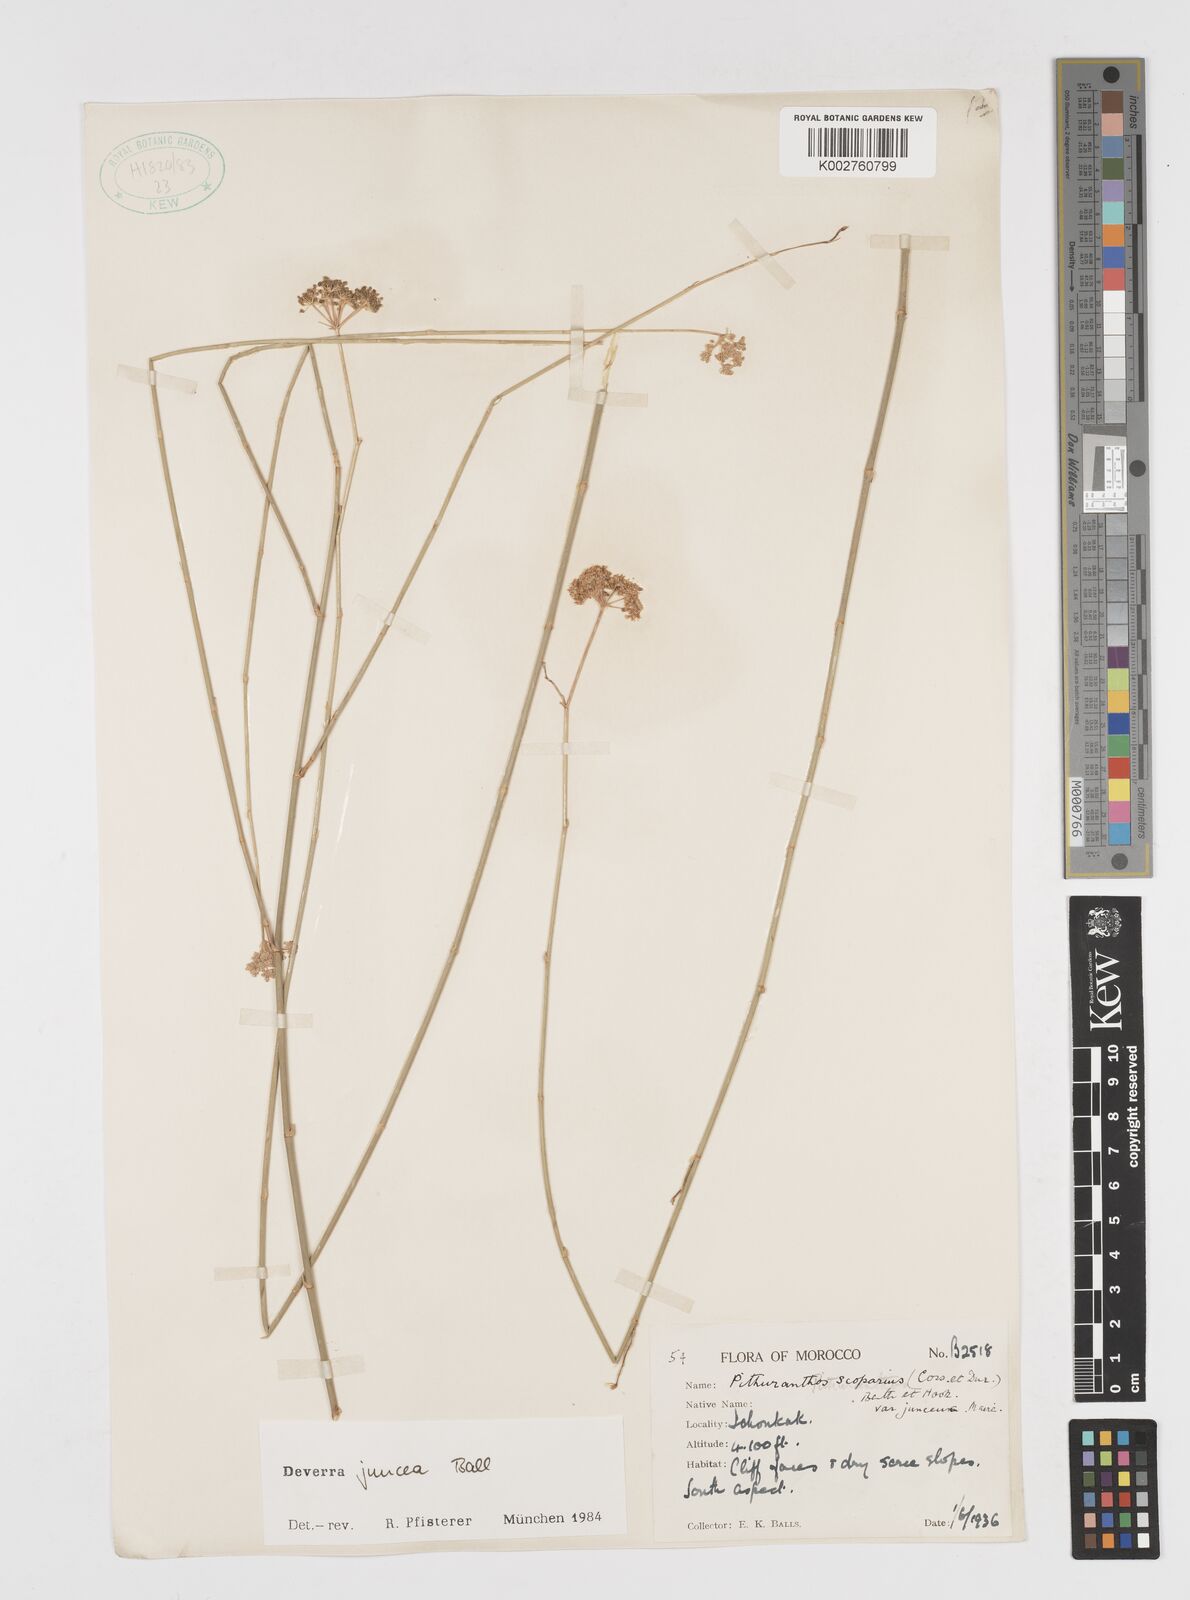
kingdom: Plantae
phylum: Tracheophyta
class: Magnoliopsida
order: Apiales
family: Apiaceae
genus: Deverra
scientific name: Deverra juncea
